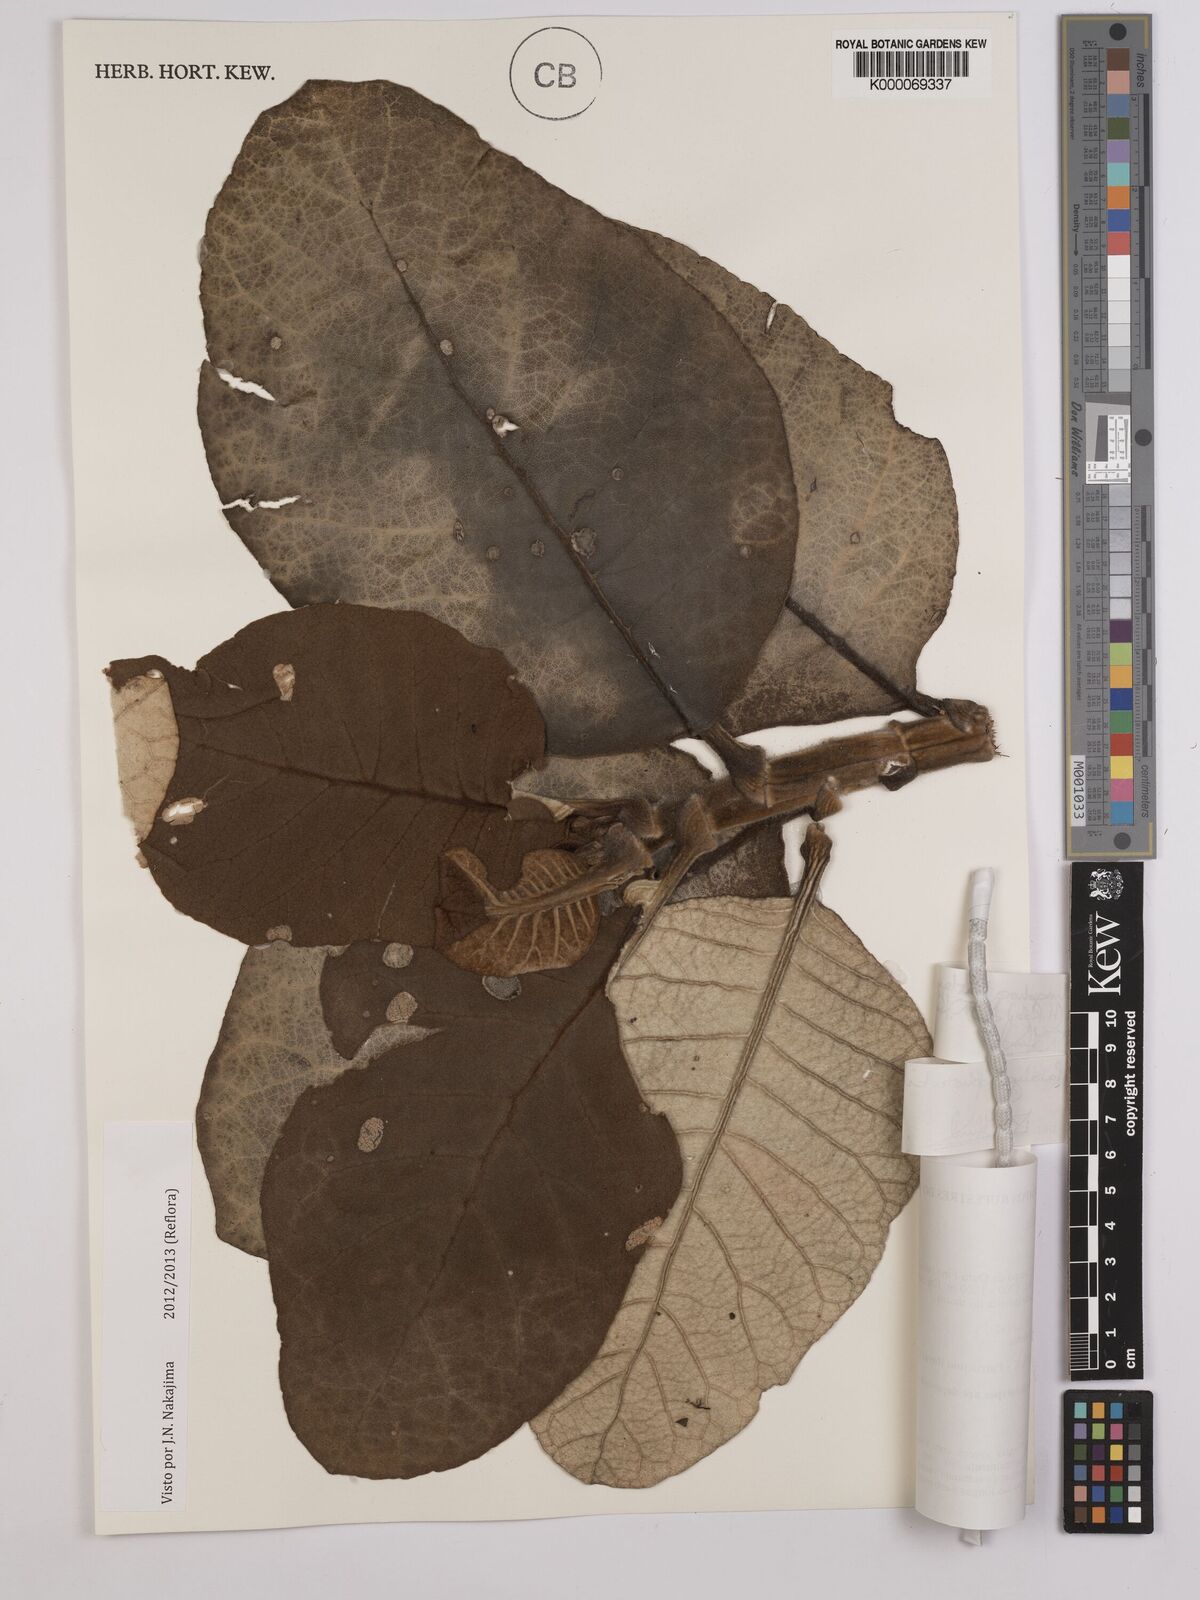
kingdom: Plantae
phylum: Tracheophyta
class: Magnoliopsida
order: Asterales
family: Asteraceae
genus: Paralychnophora
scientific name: Paralychnophora harleyi
